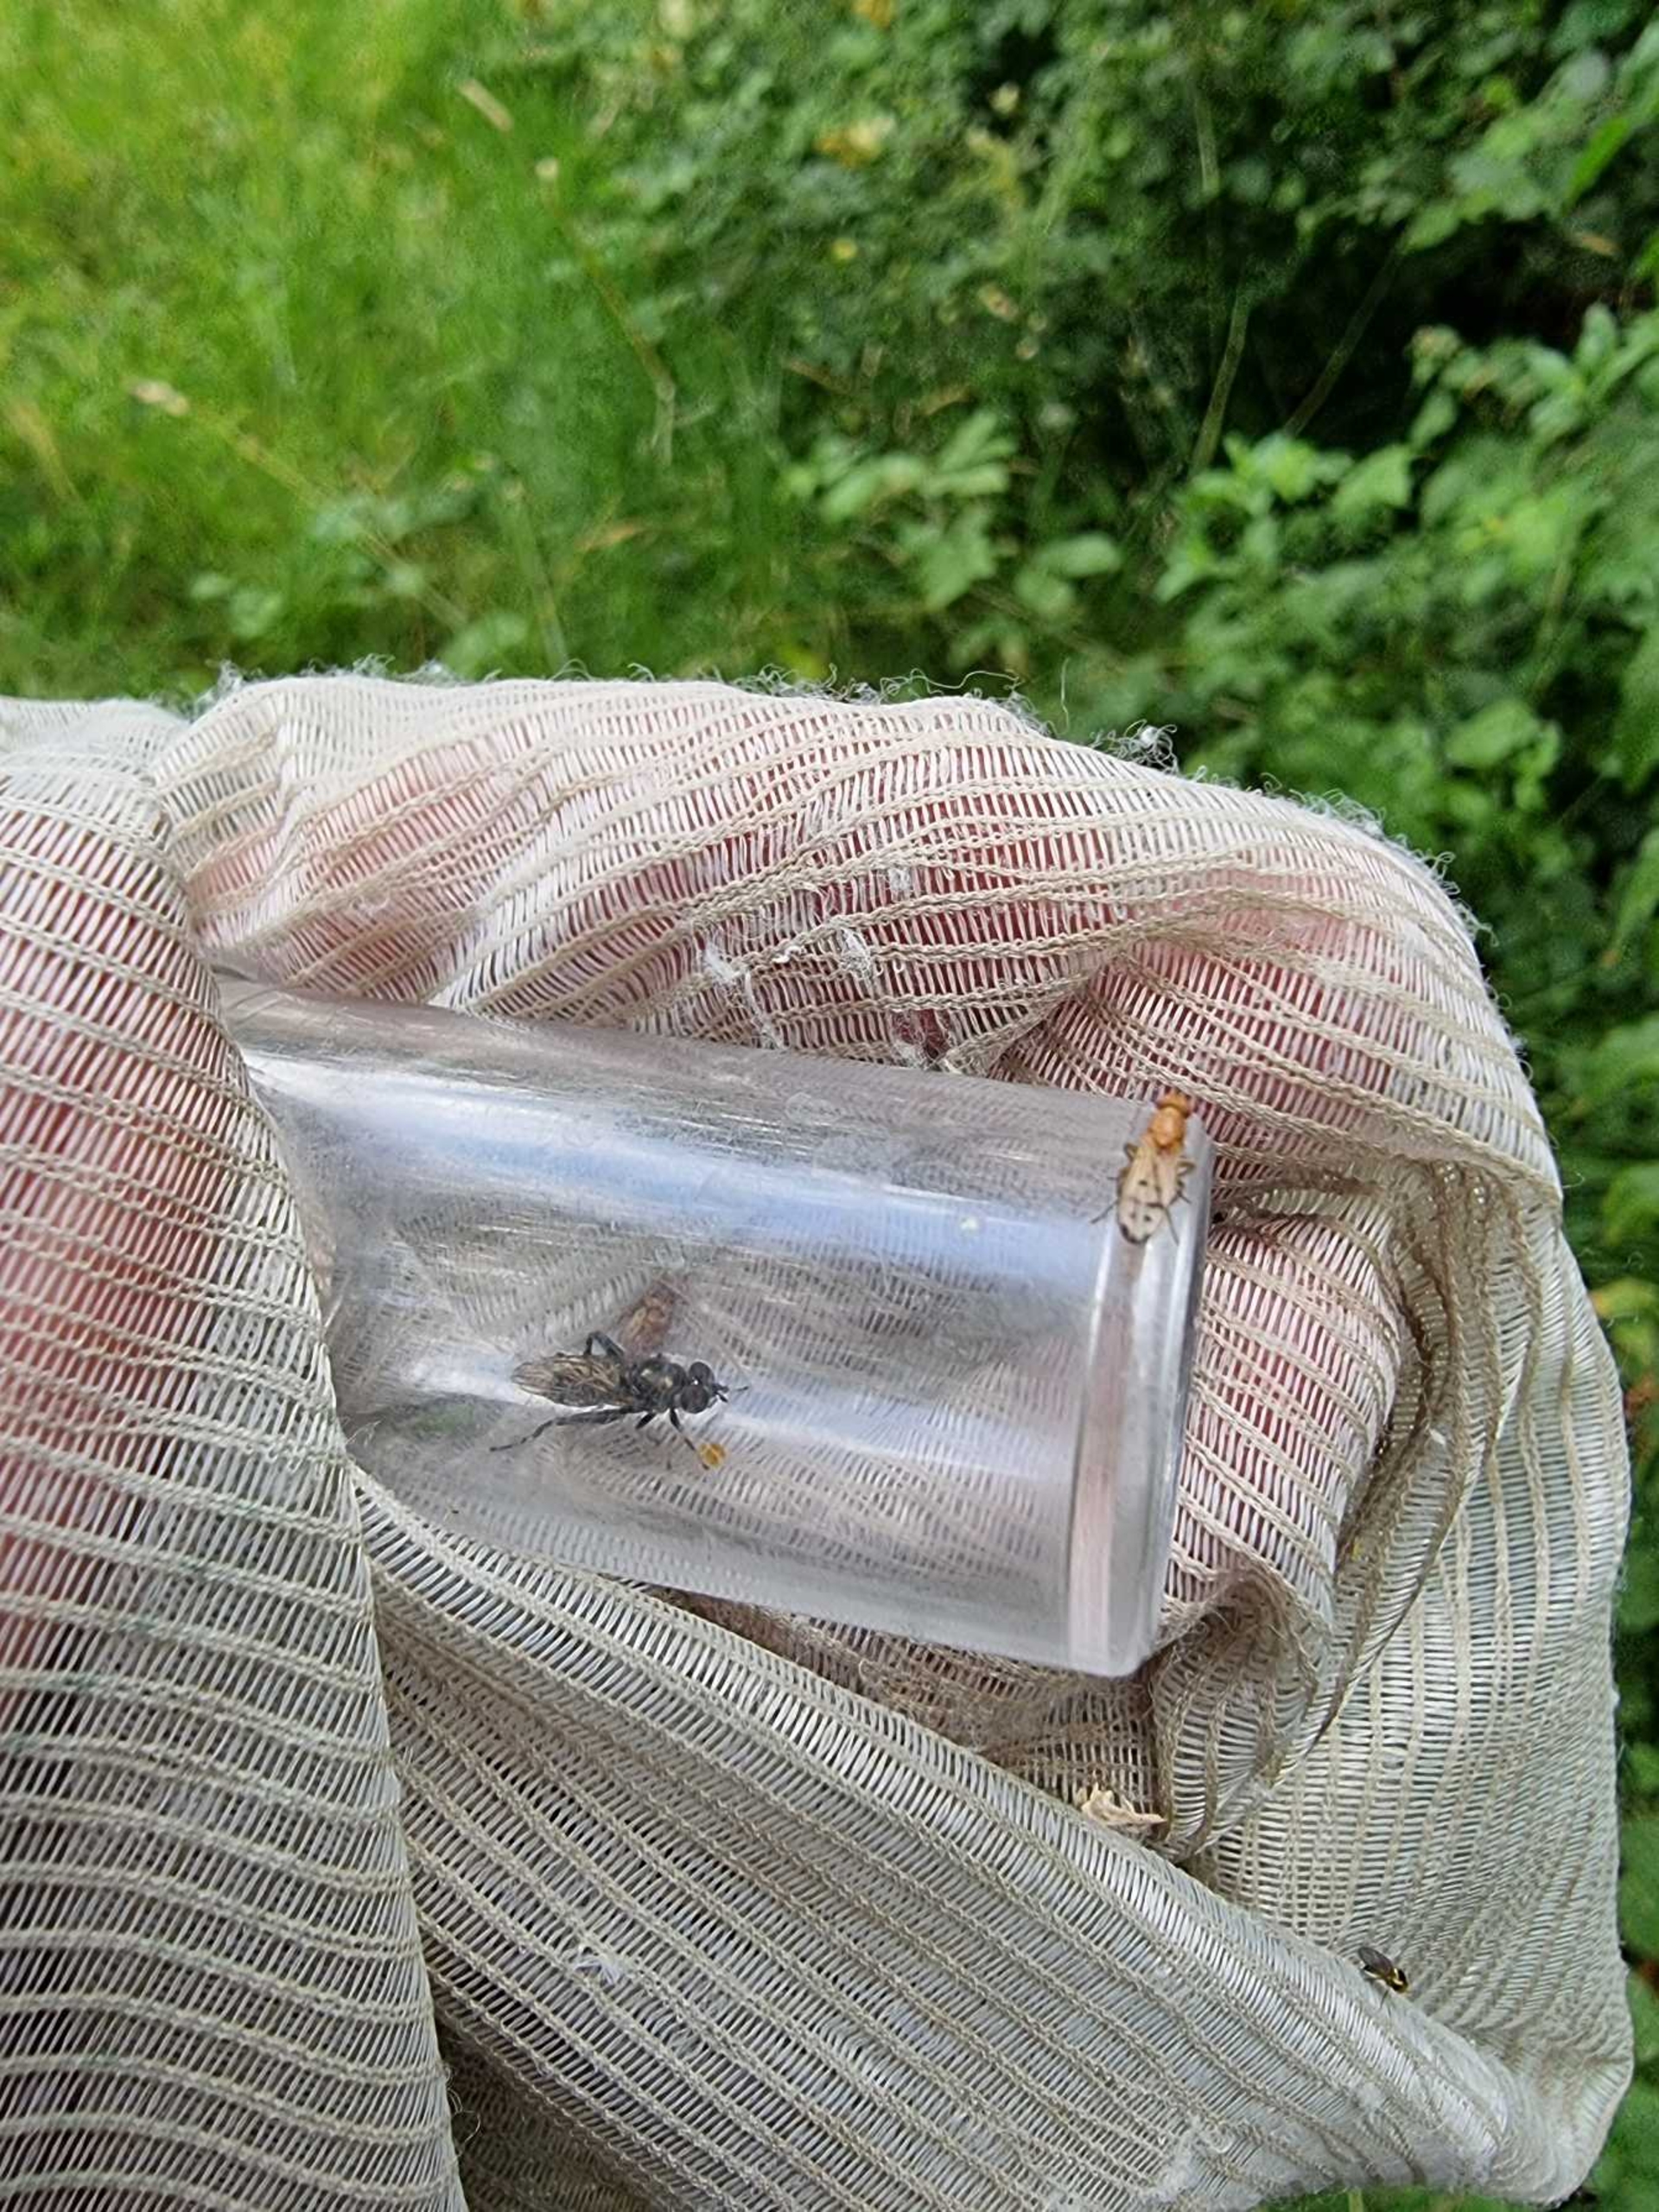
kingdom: Animalia
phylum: Arthropoda
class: Insecta
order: Diptera
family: Syrphidae
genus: Chalcosyrphus
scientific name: Chalcosyrphus nemorum
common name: Lund-træsmuldsvirreflue
